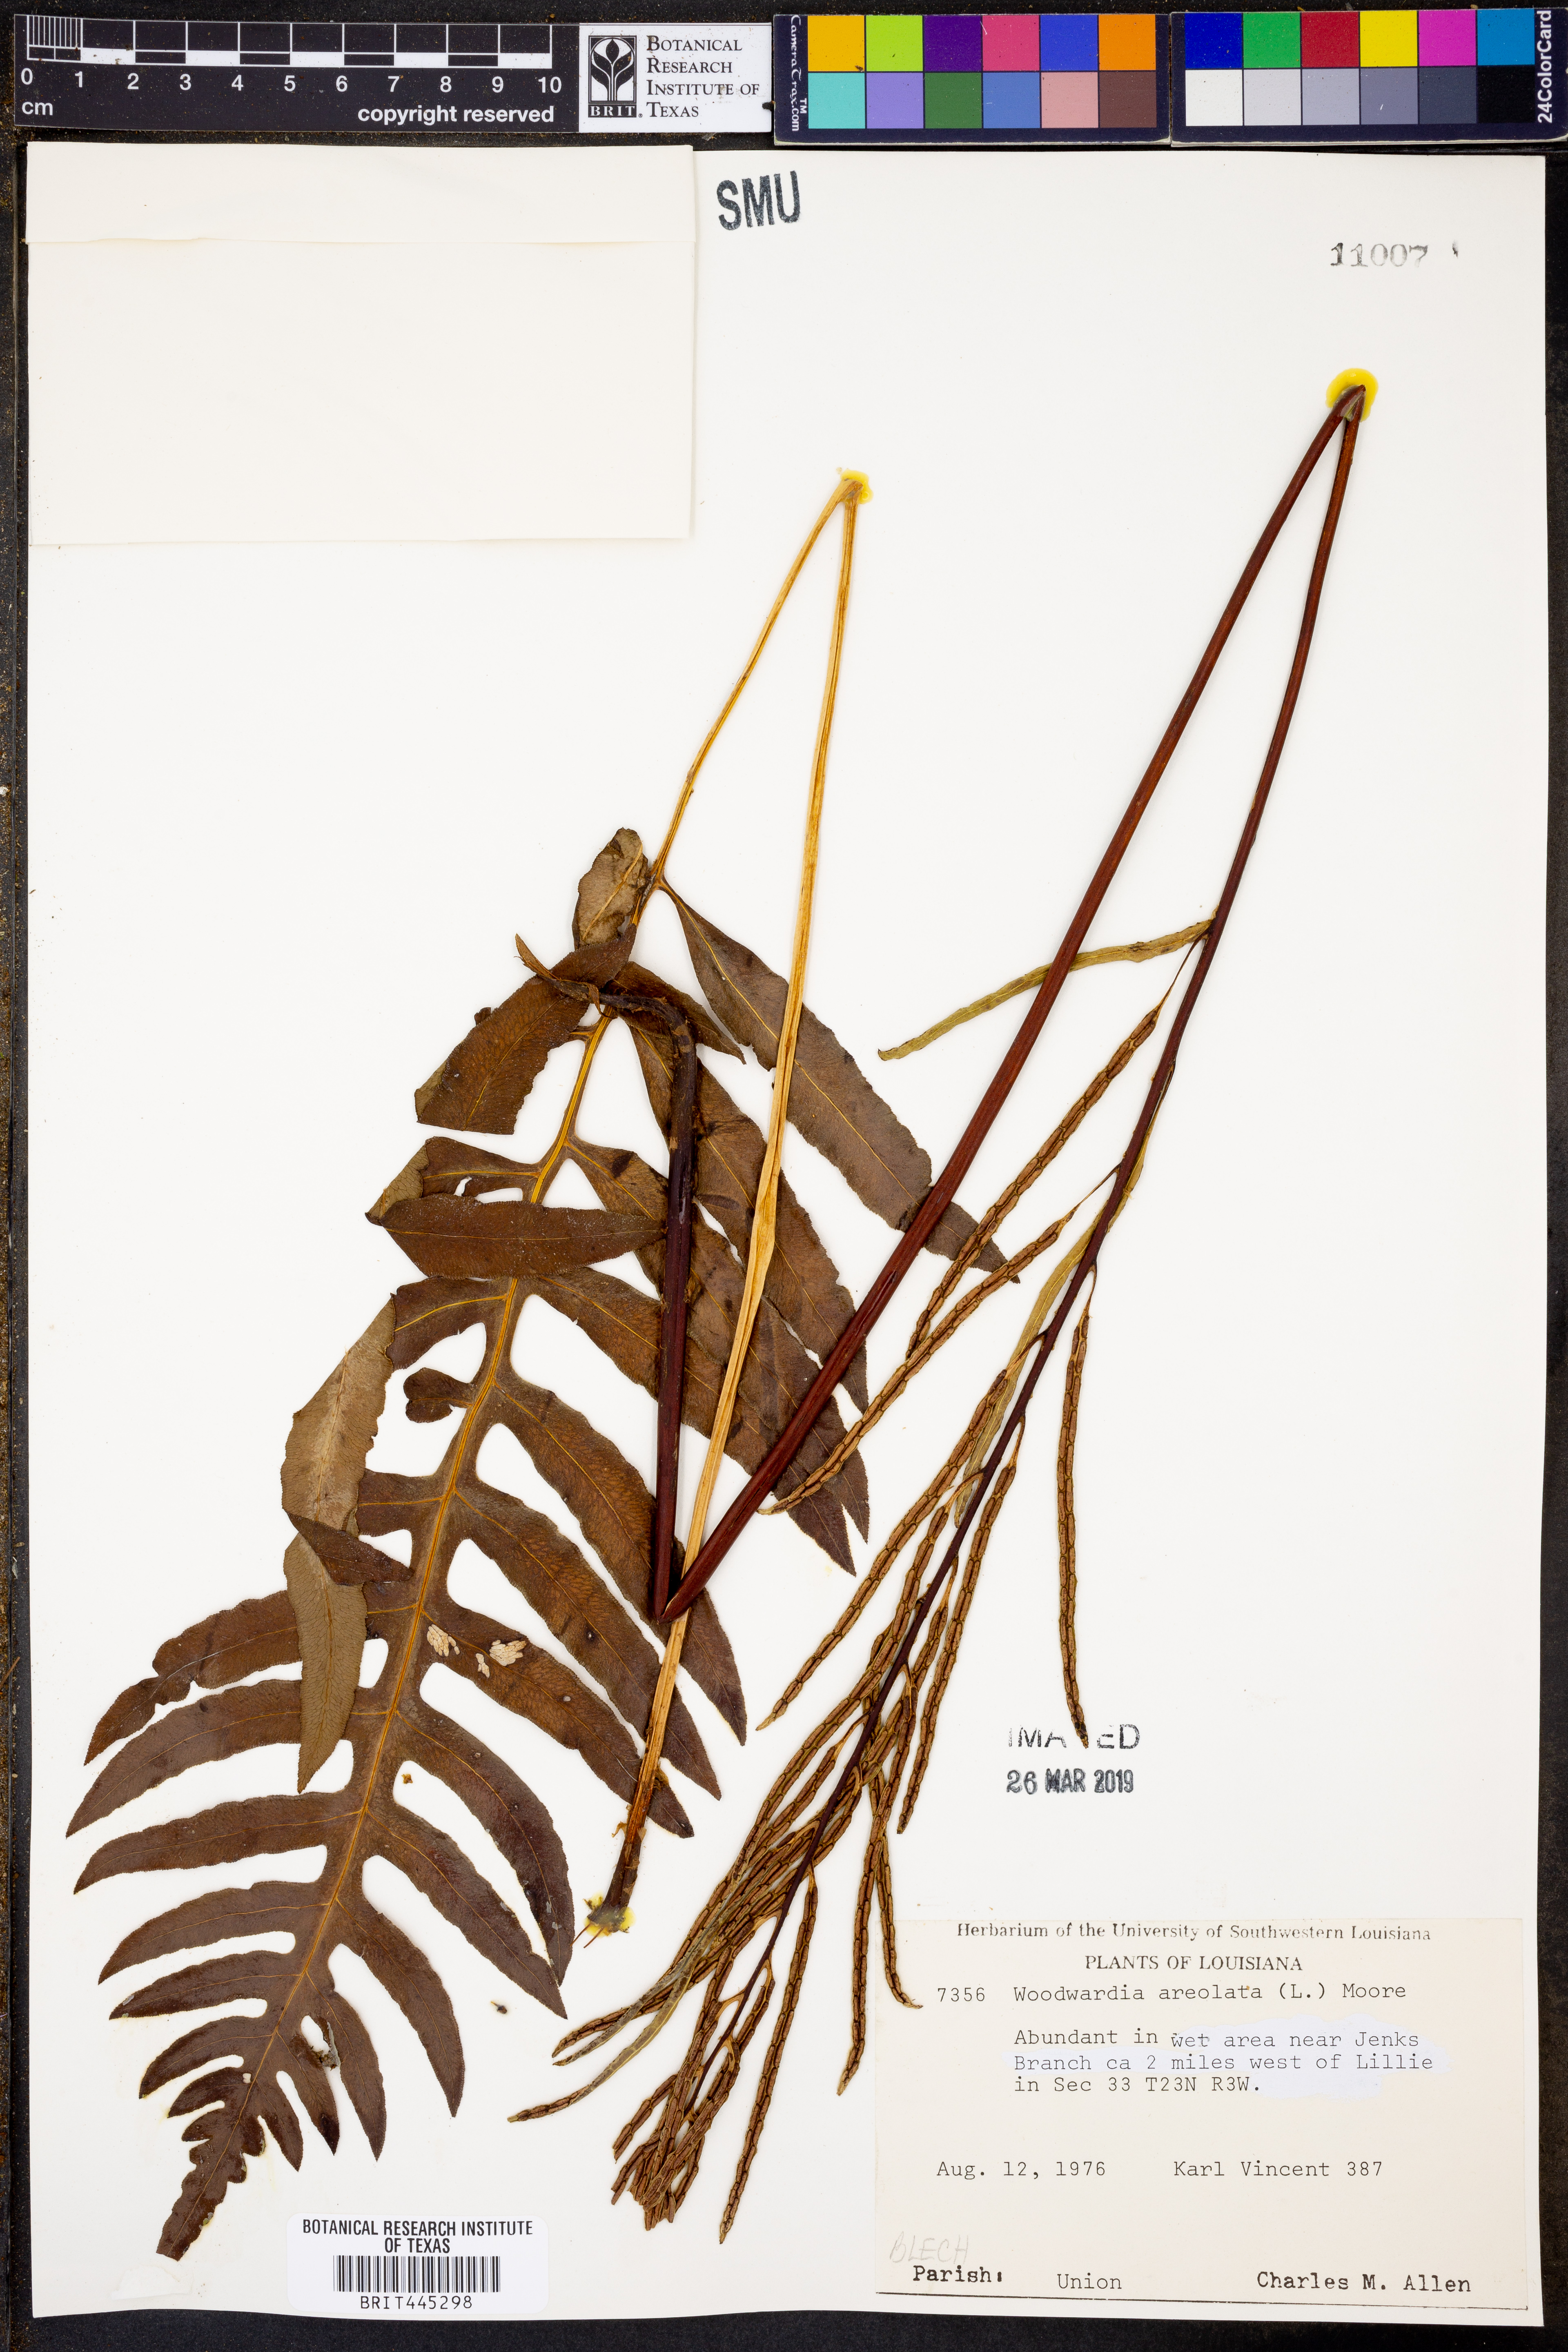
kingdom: Plantae
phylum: Tracheophyta
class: Polypodiopsida
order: Polypodiales
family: Blechnaceae
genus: Lorinseria
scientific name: Lorinseria areolata
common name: Dwarf chain fern
